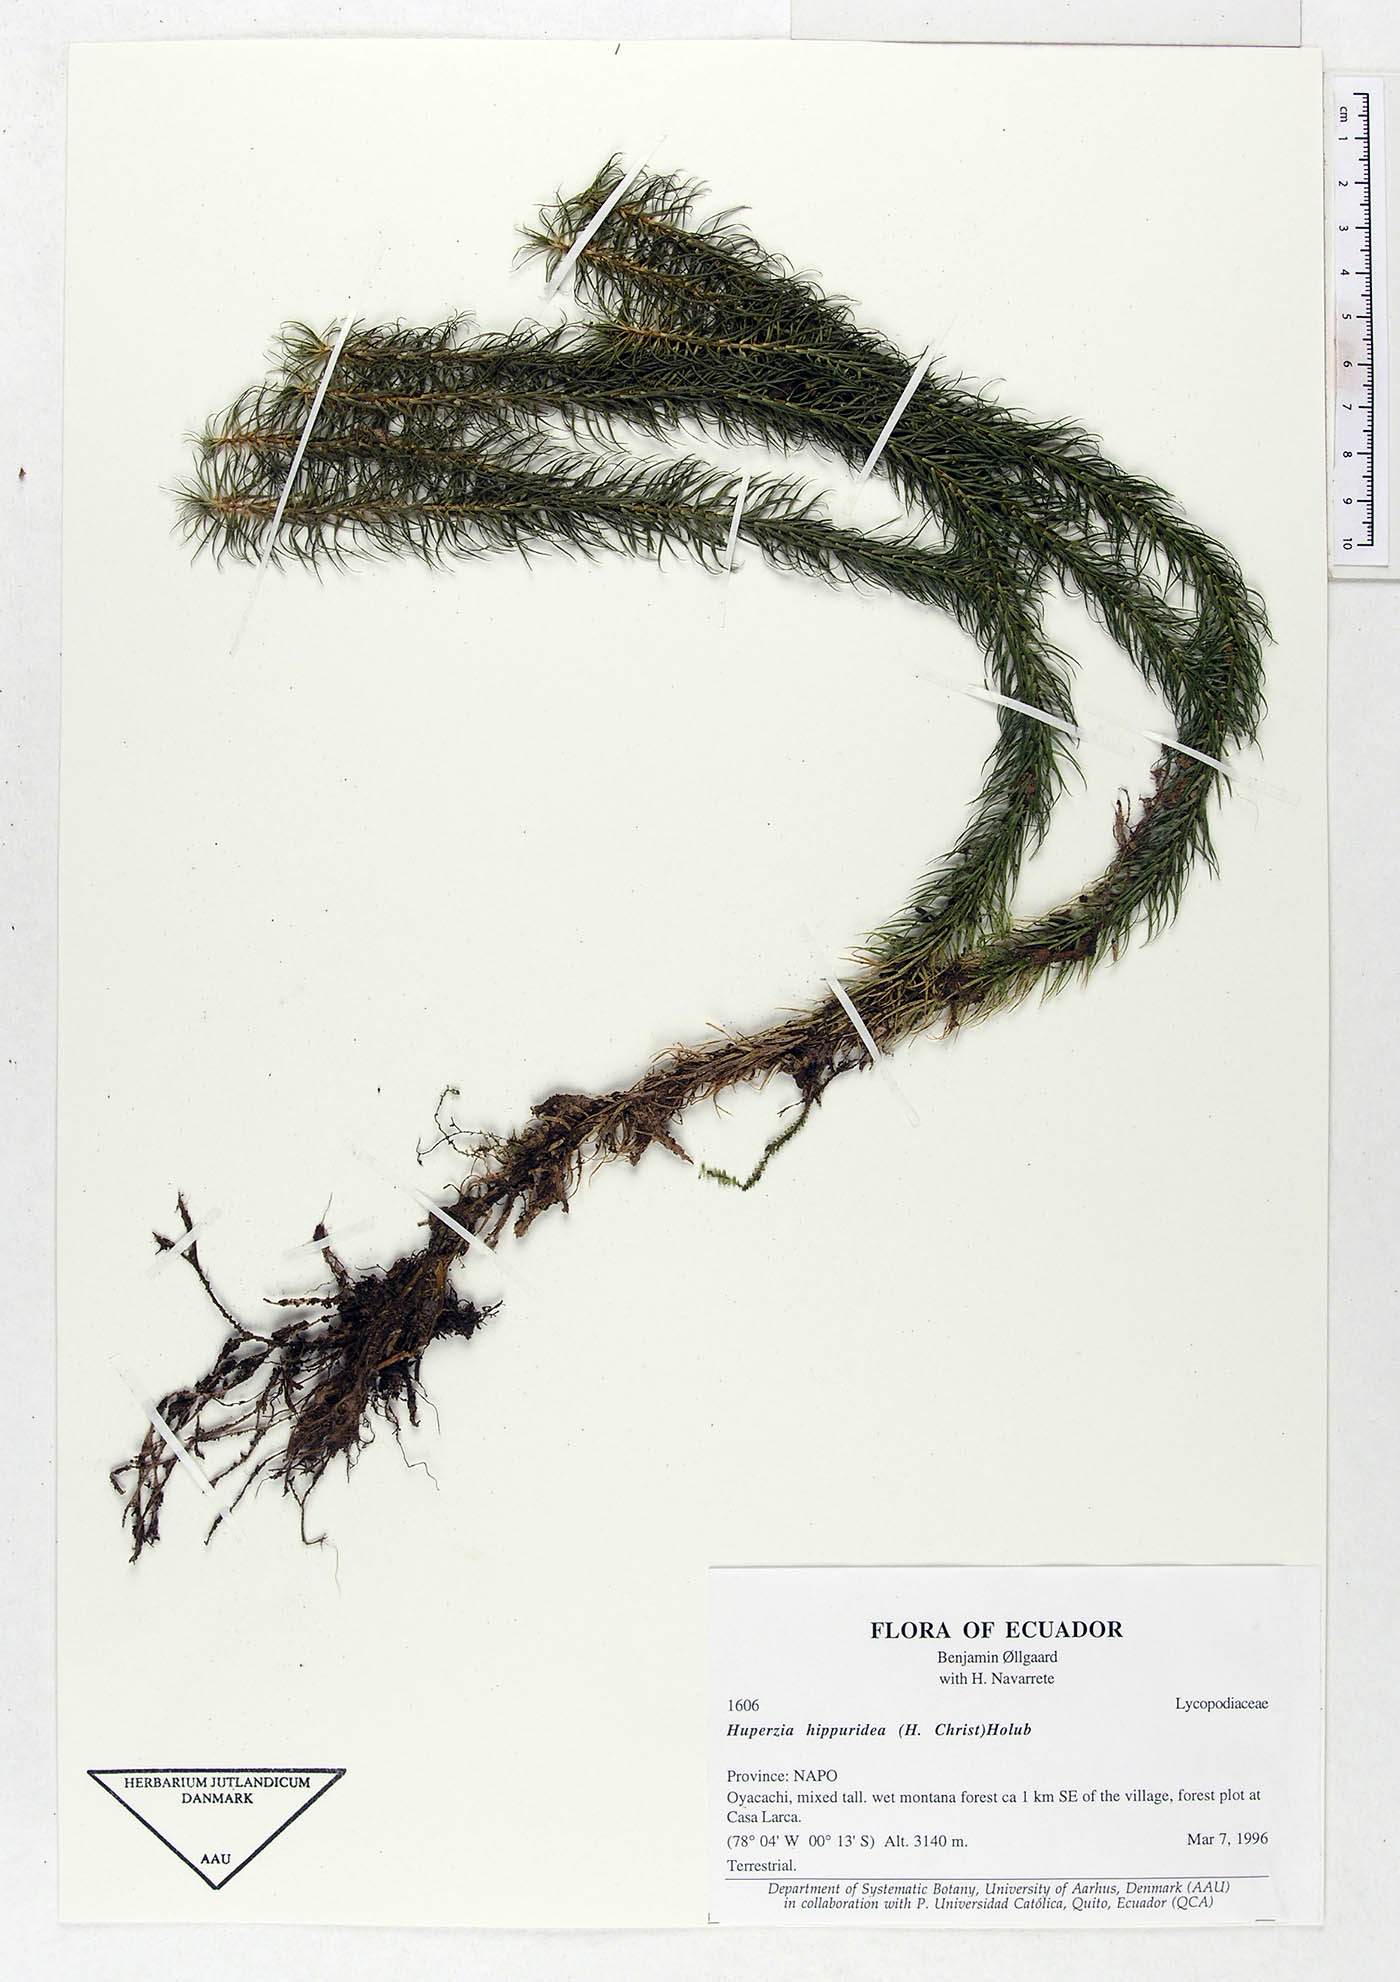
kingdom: Plantae
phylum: Tracheophyta
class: Lycopodiopsida
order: Lycopodiales
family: Lycopodiaceae
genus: Phlegmariurus
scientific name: Phlegmariurus hippurideus
